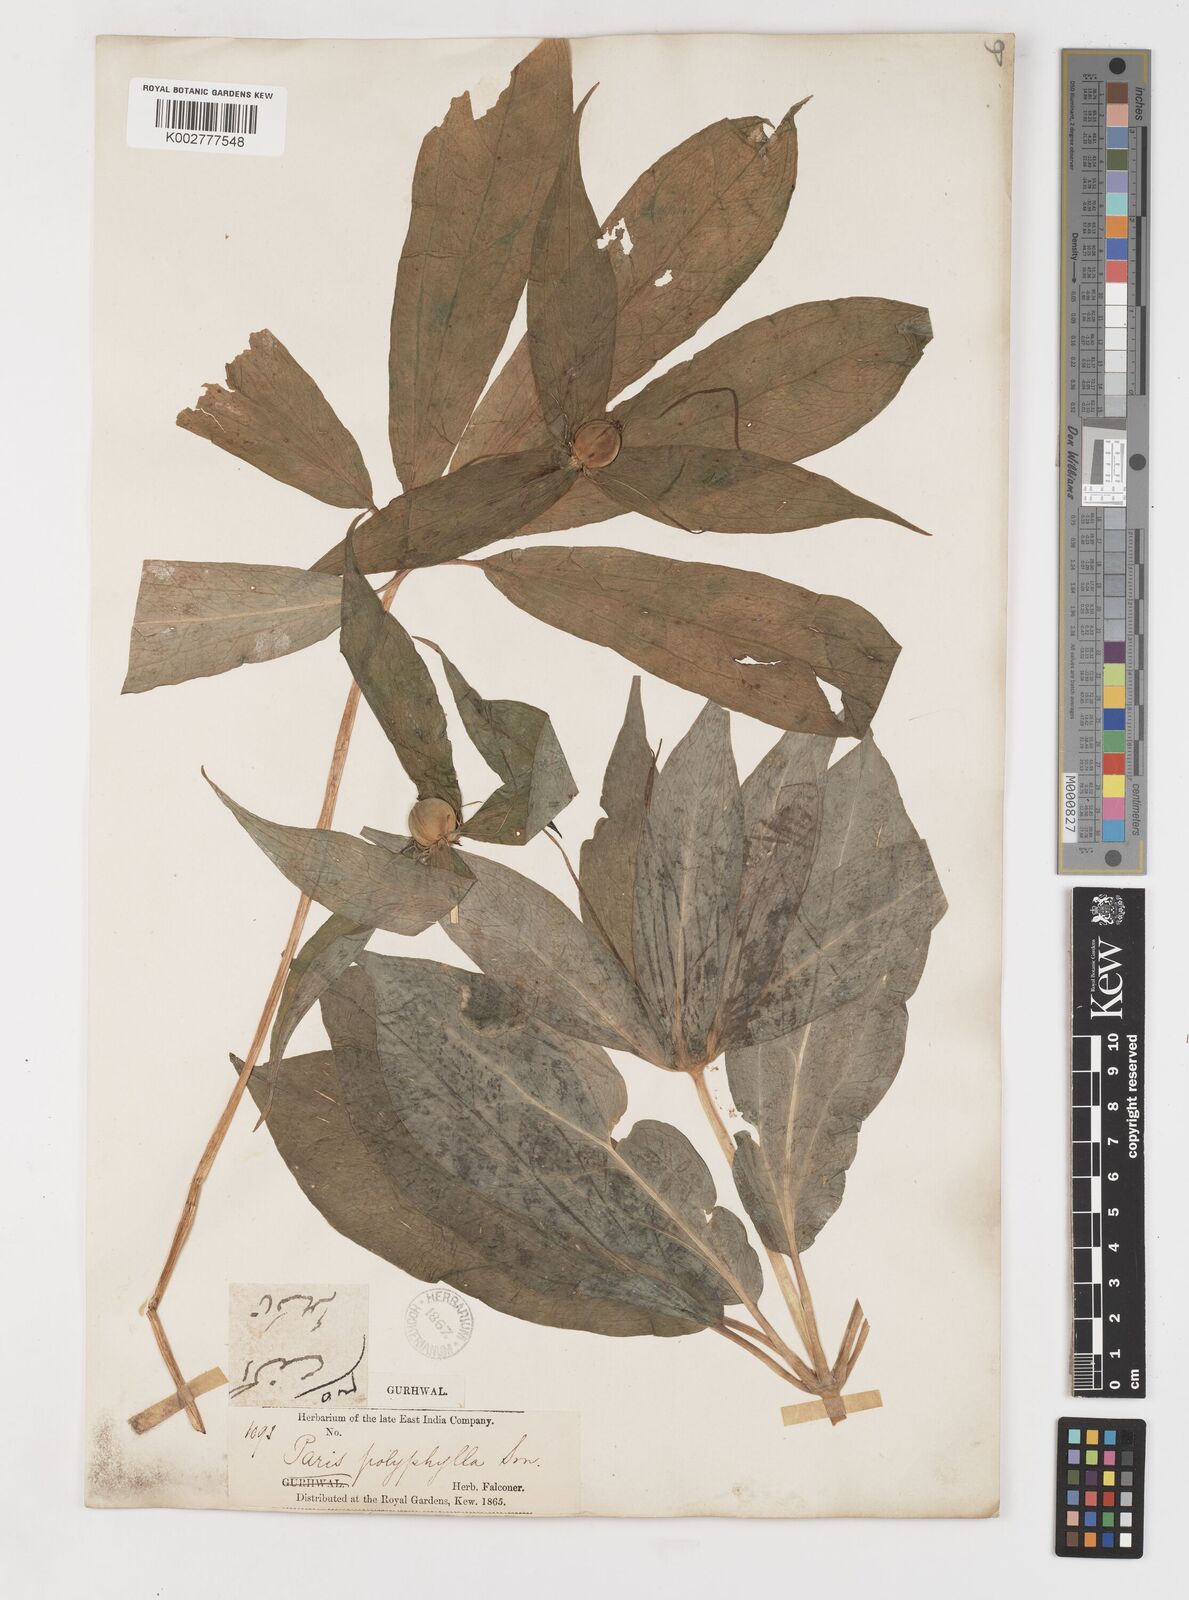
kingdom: Plantae
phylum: Tracheophyta
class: Liliopsida
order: Liliales
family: Melanthiaceae
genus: Paris
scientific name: Paris polyphylla
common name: Love apple
